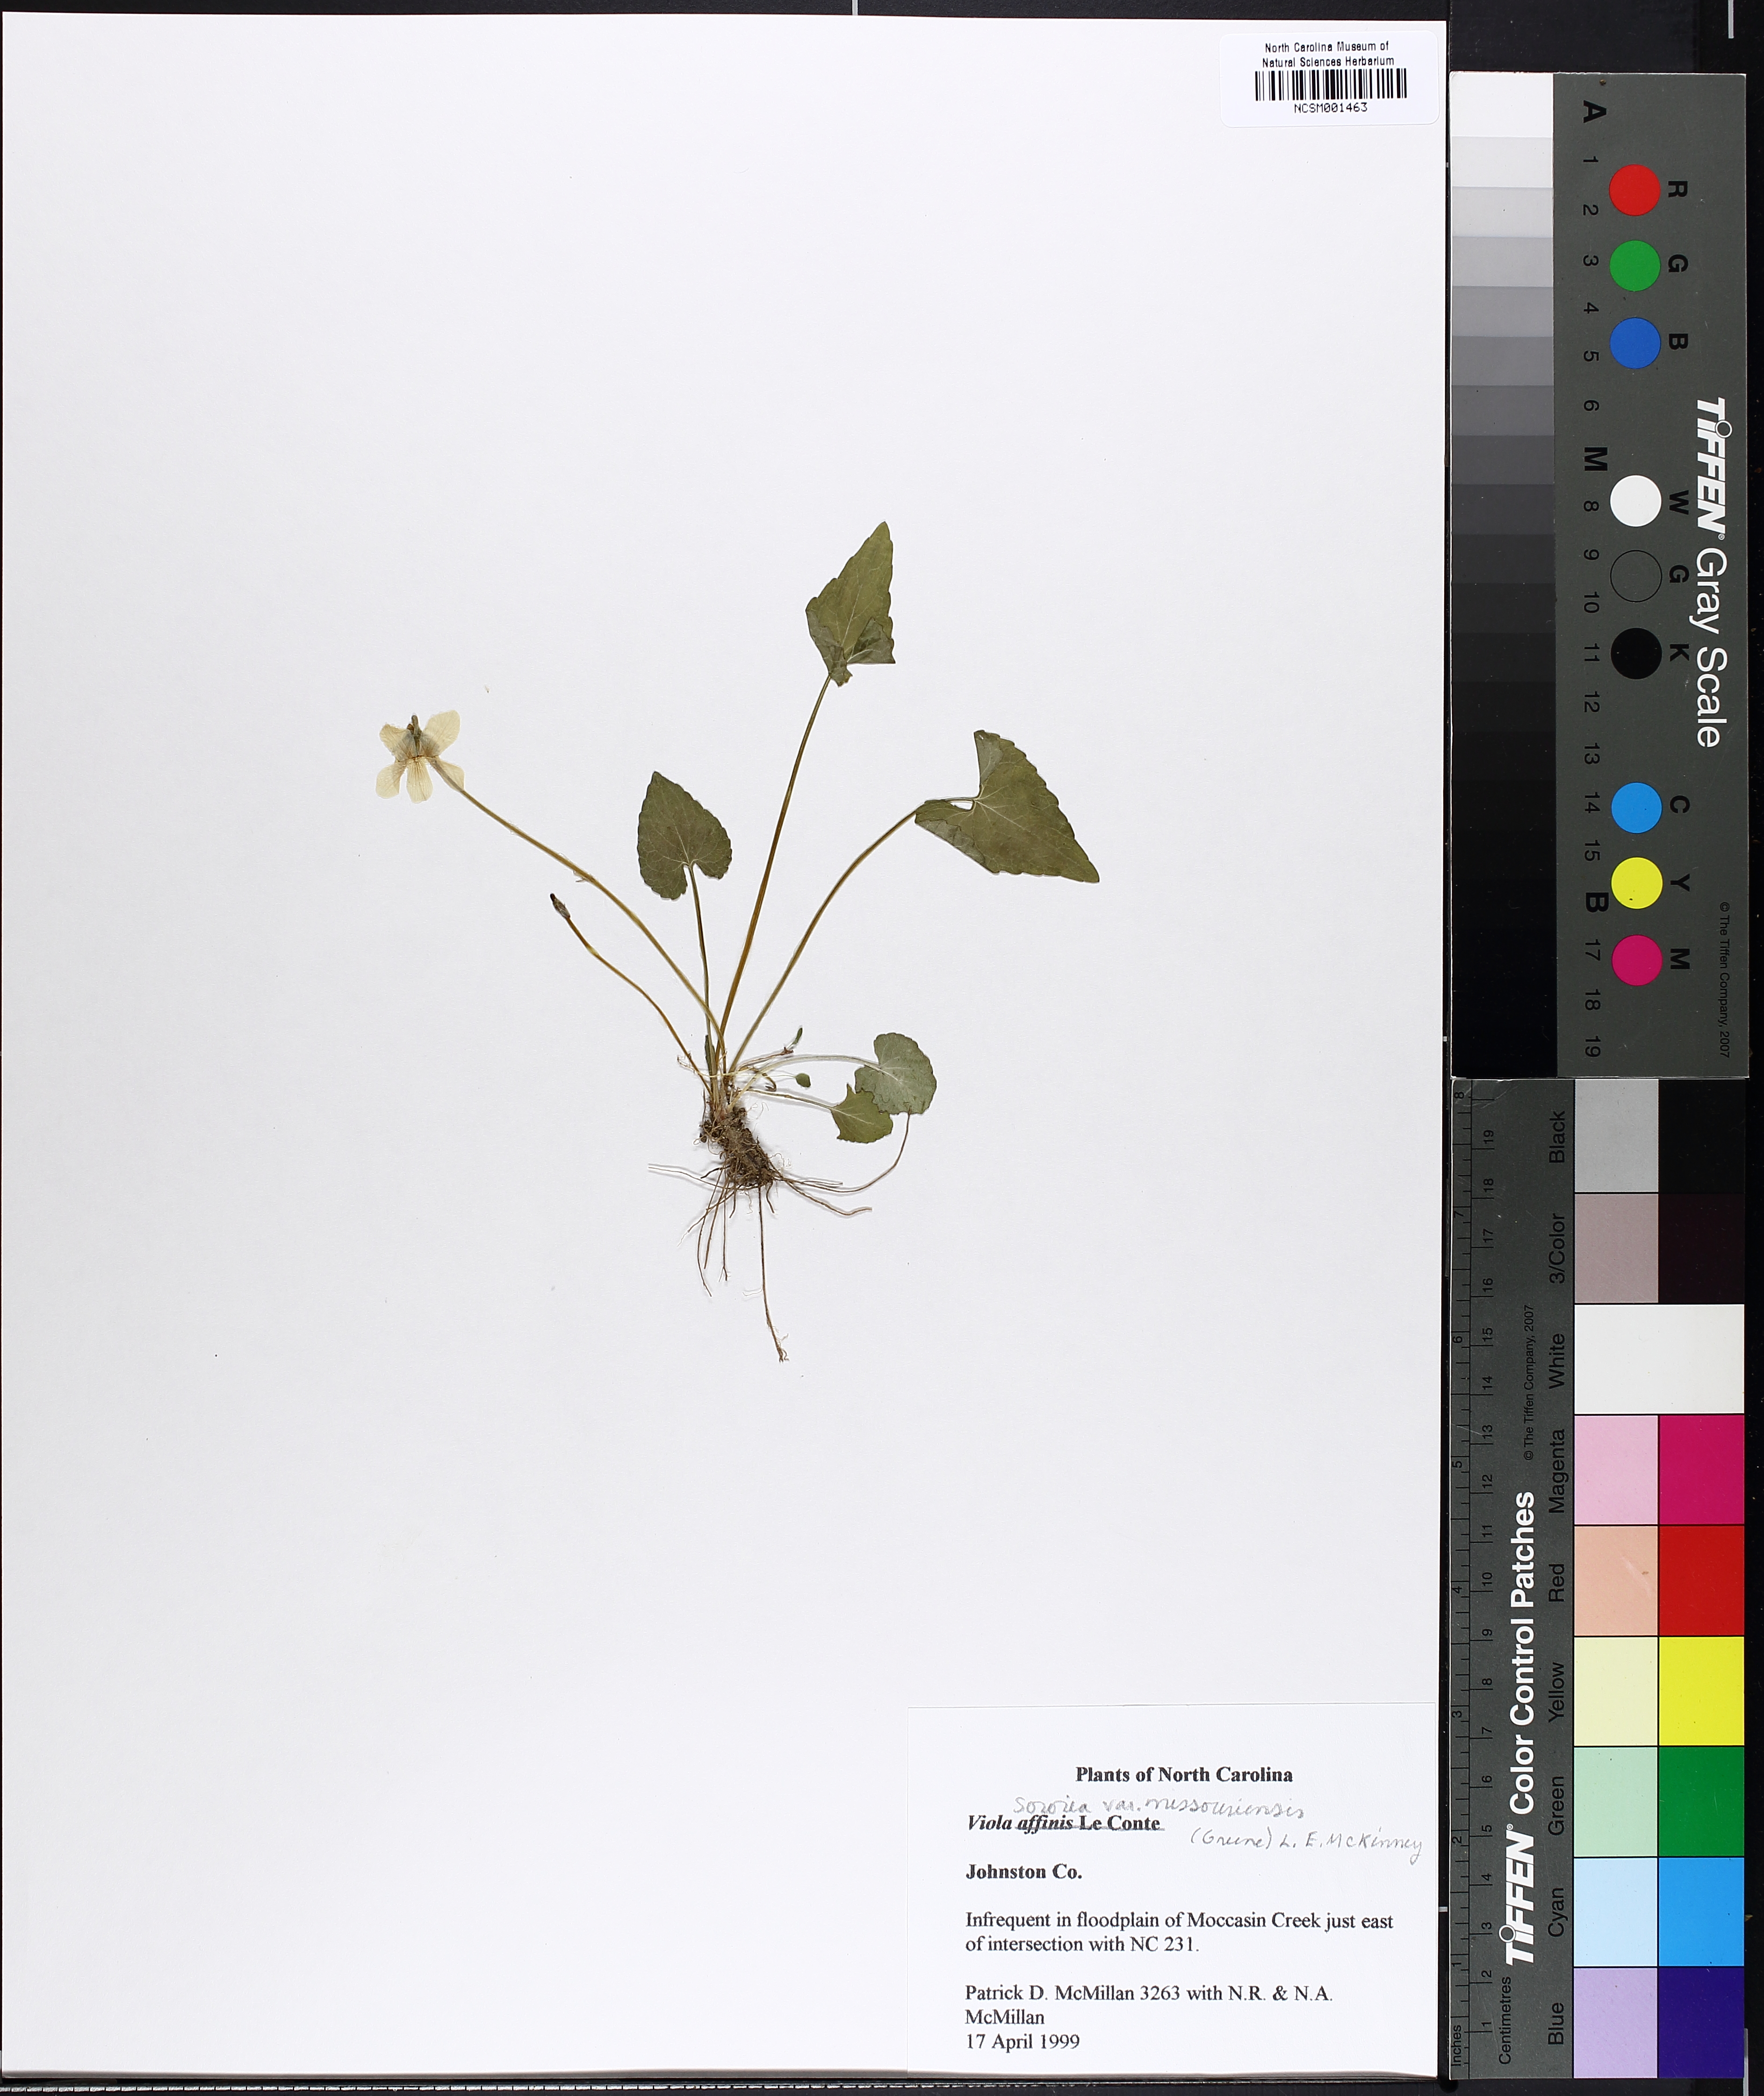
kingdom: Plantae
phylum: Tracheophyta
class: Magnoliopsida
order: Malpighiales
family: Violaceae
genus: Viola
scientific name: Viola missouriensis
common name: Missouri violet
